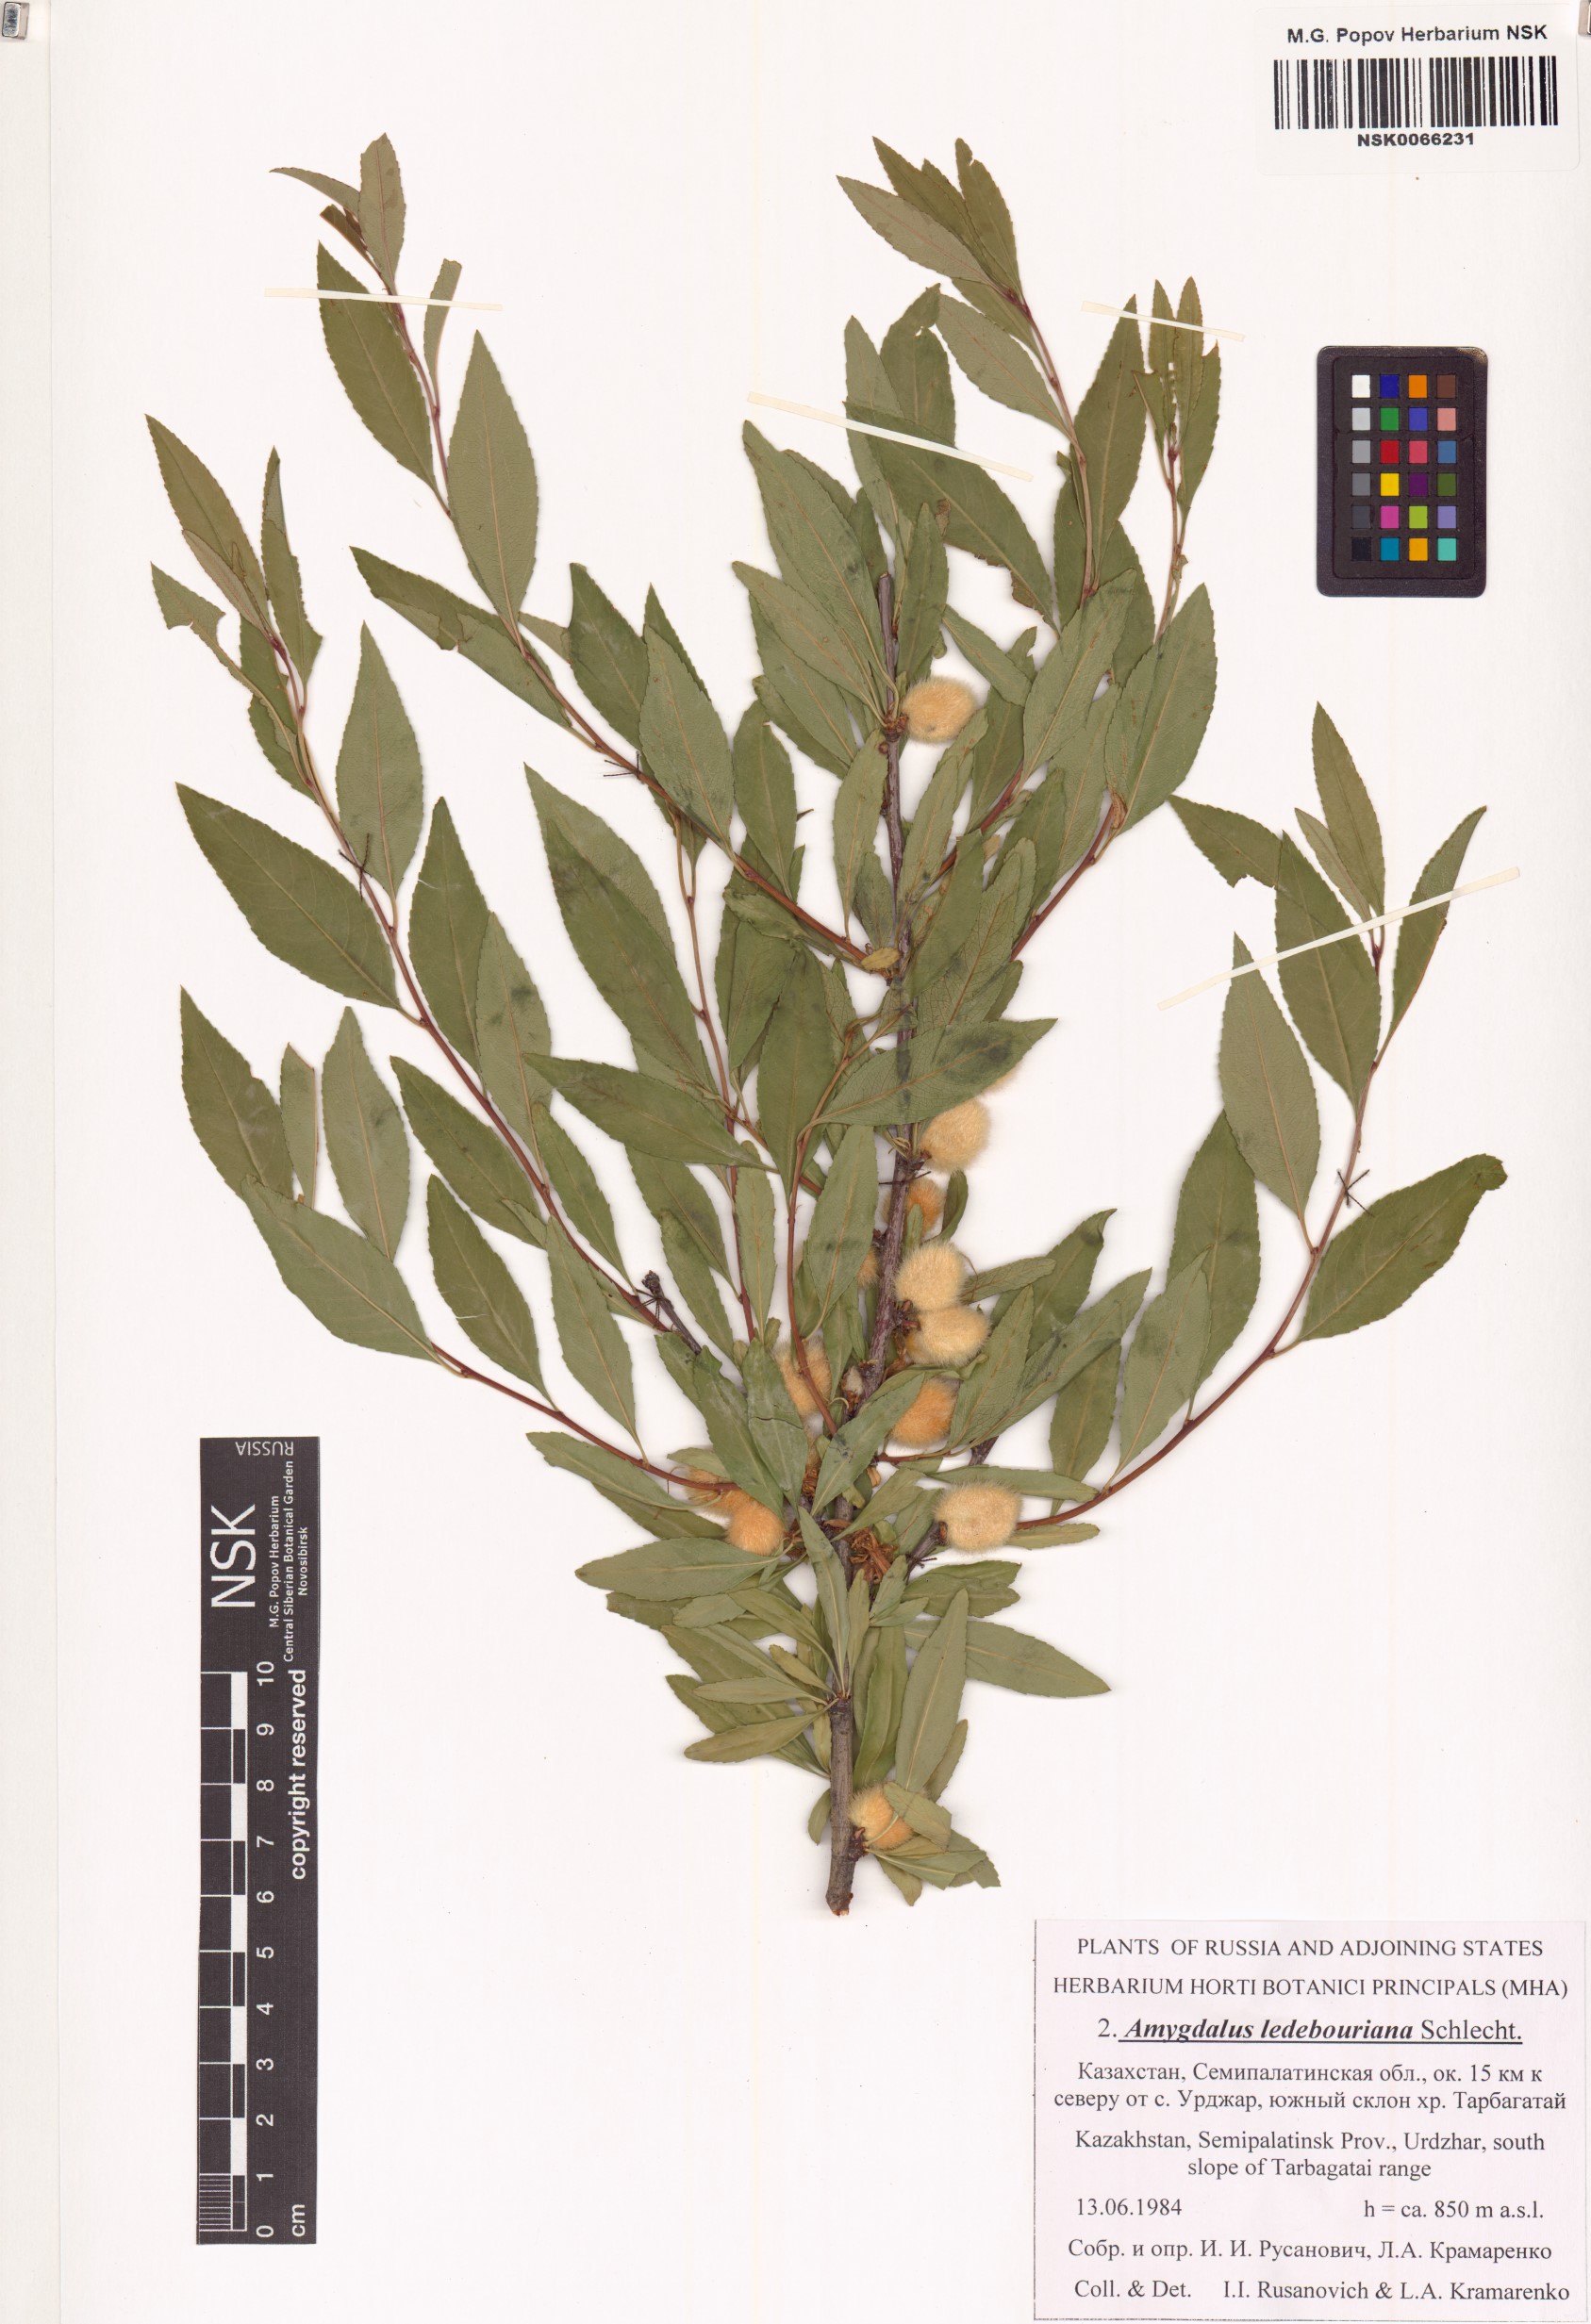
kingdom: Plantae
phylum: Tracheophyta
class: Magnoliopsida
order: Rosales
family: Rosaceae
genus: Prunus
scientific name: Prunus ledebouriana
